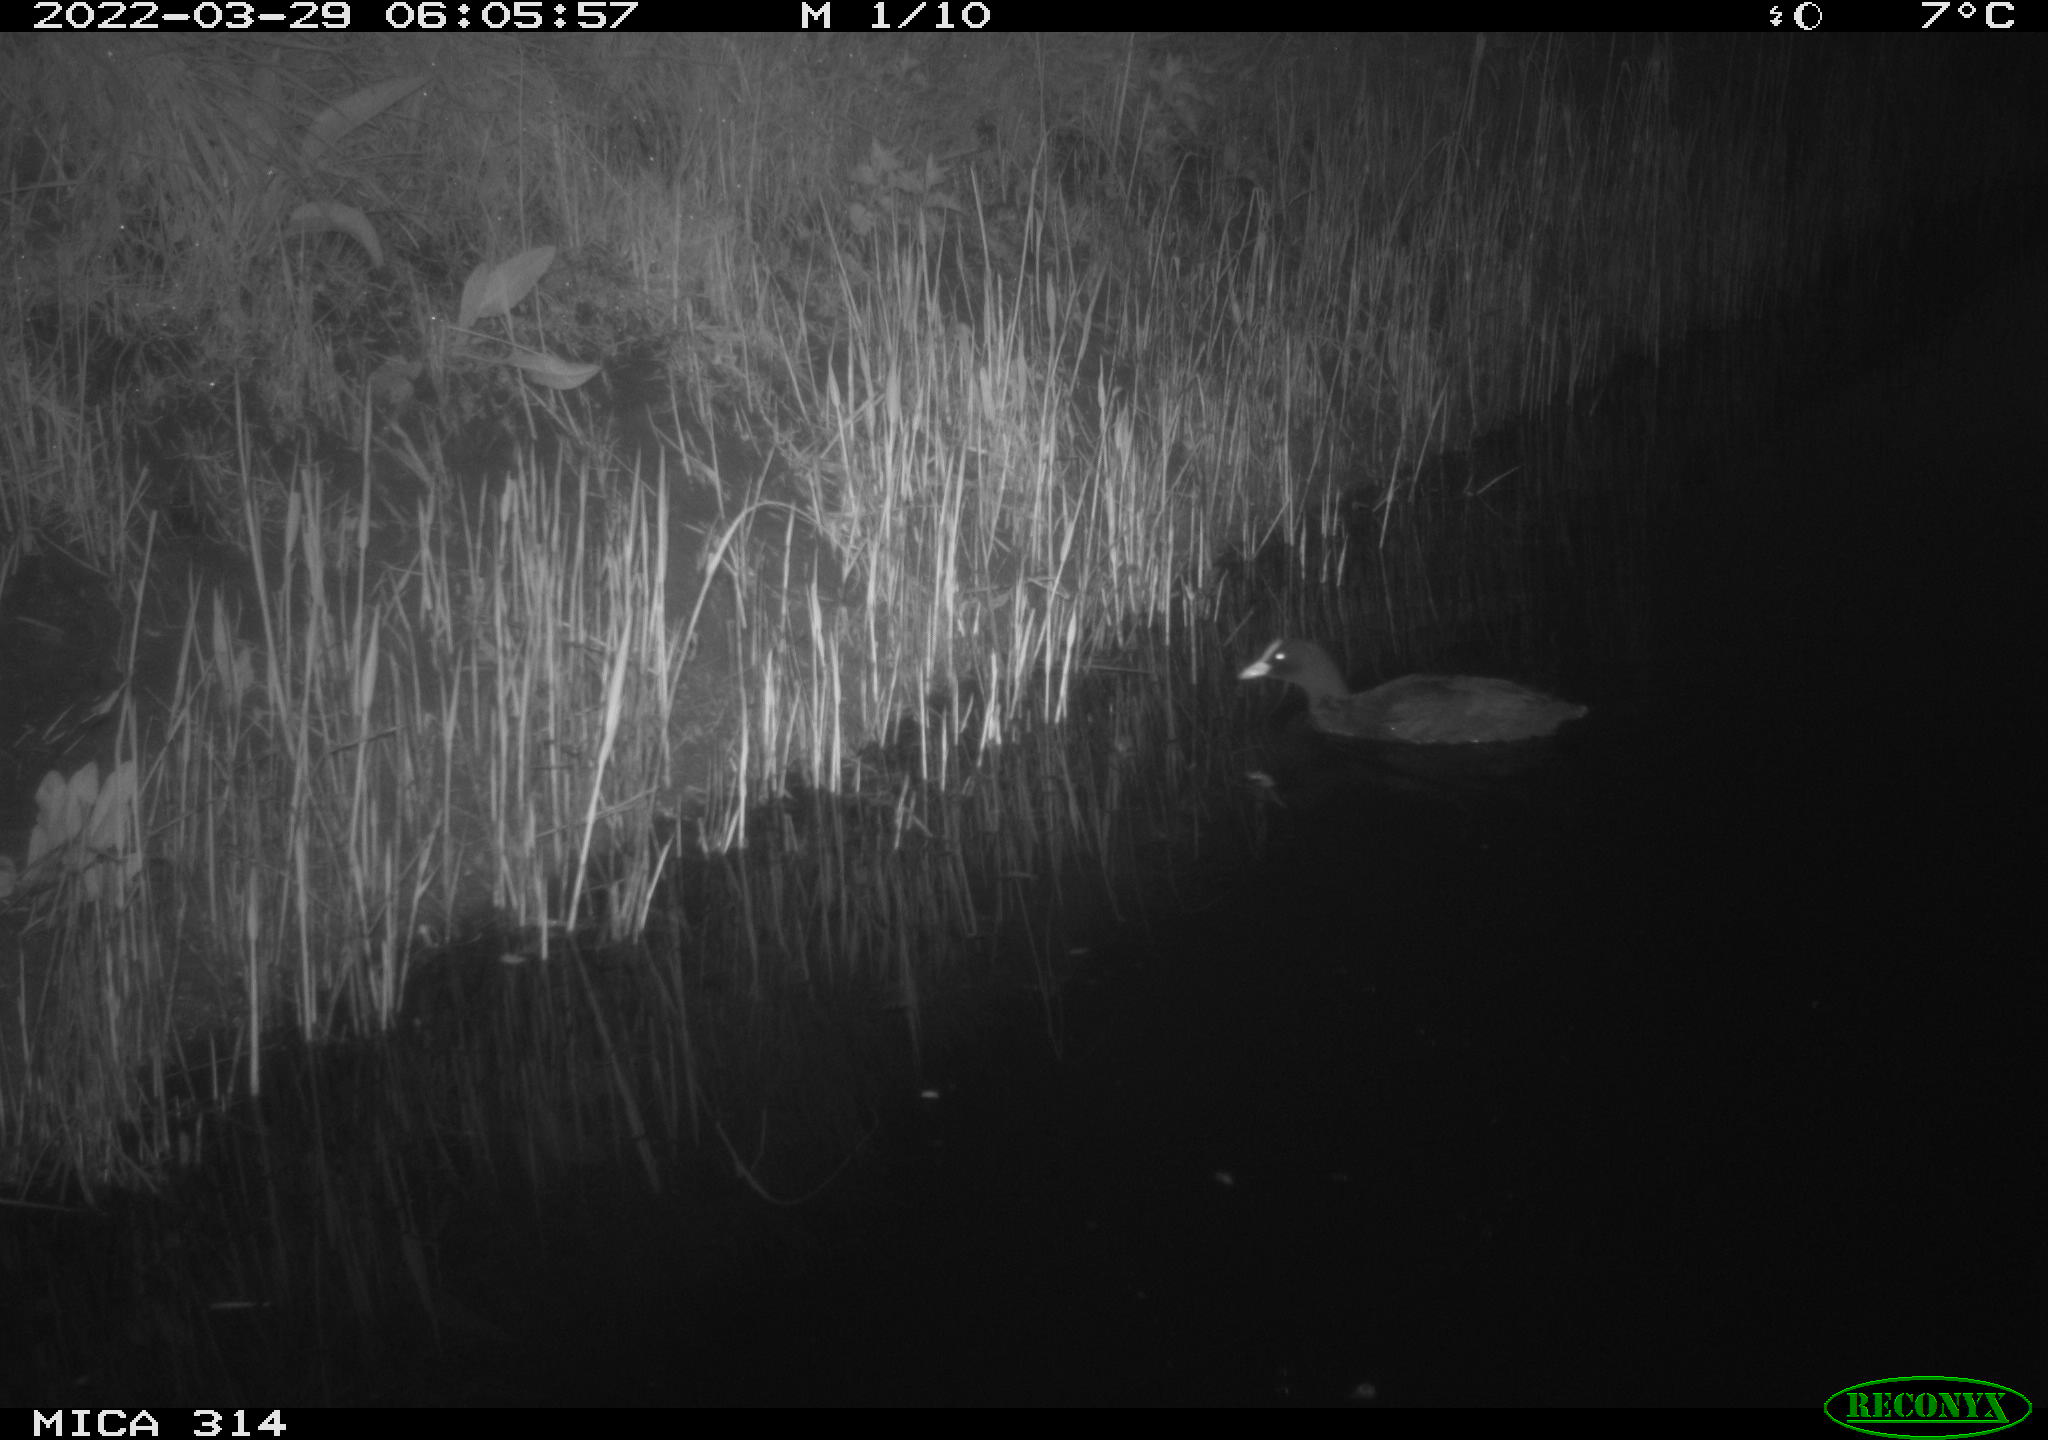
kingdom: Animalia
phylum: Chordata
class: Aves
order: Gruiformes
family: Rallidae
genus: Gallinula
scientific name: Gallinula chloropus
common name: Common moorhen
